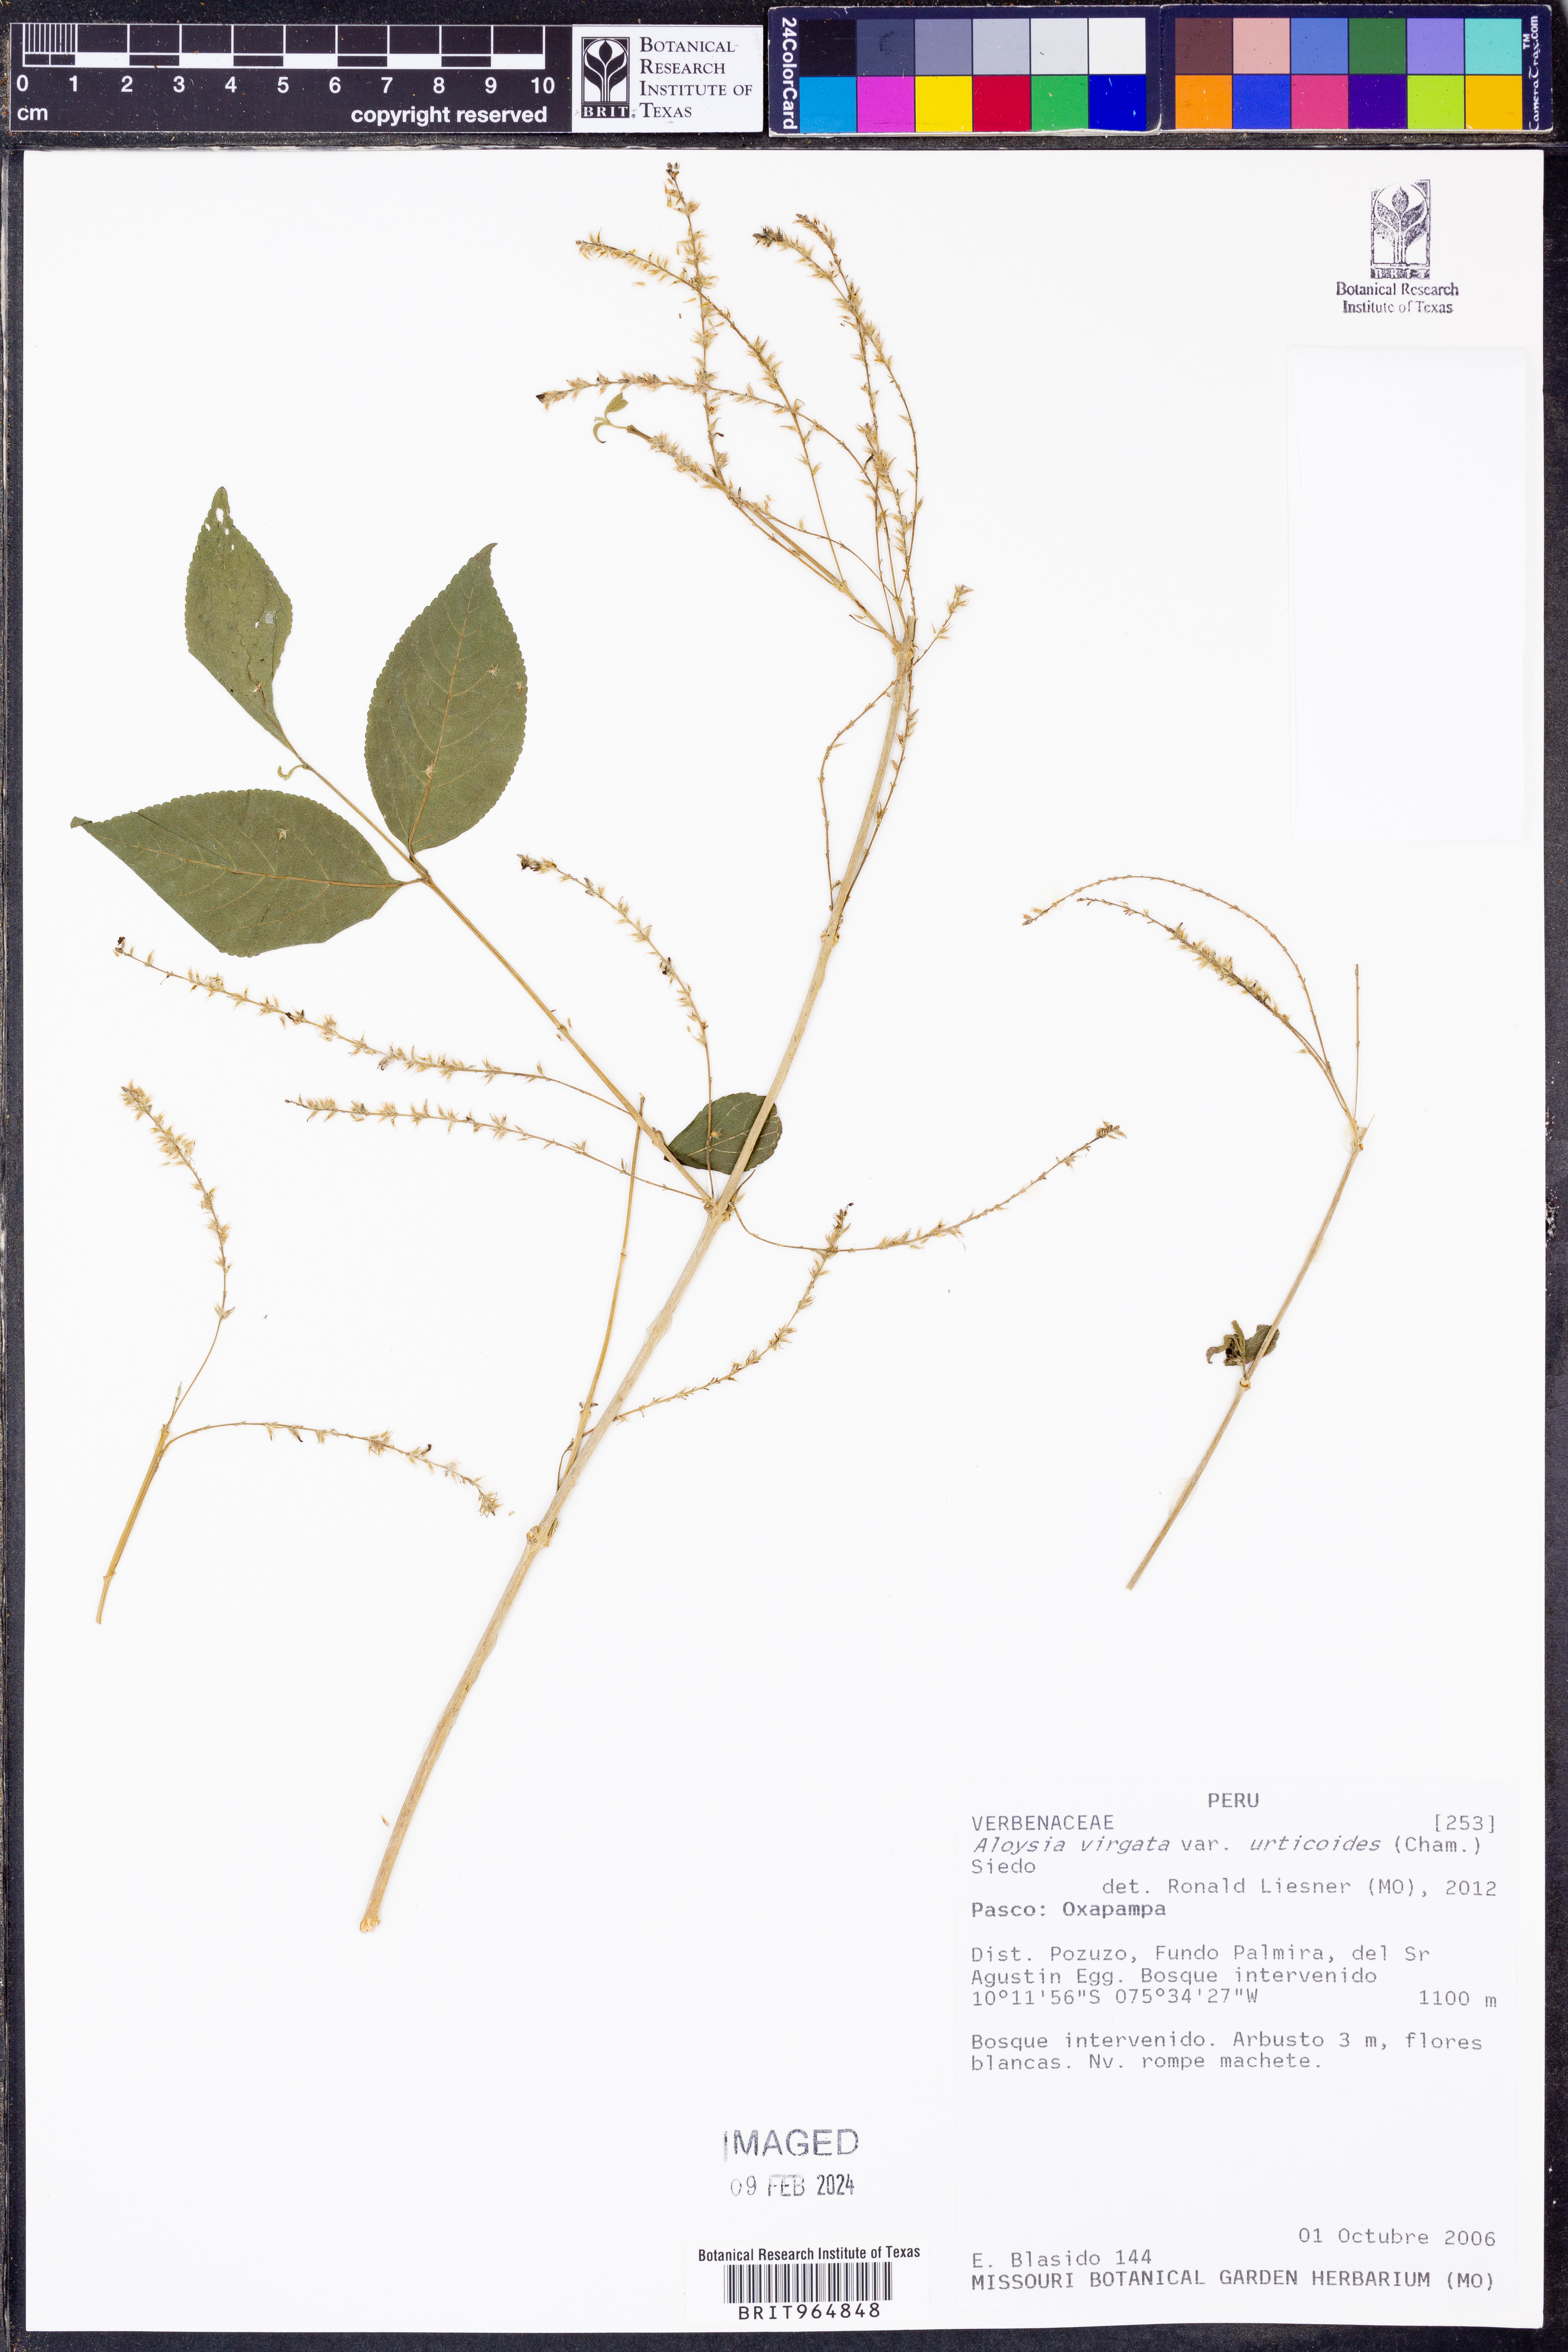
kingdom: Plantae
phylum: Tracheophyta
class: Magnoliopsida
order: Lamiales
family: Verbenaceae
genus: Aloysia
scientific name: Aloysia
